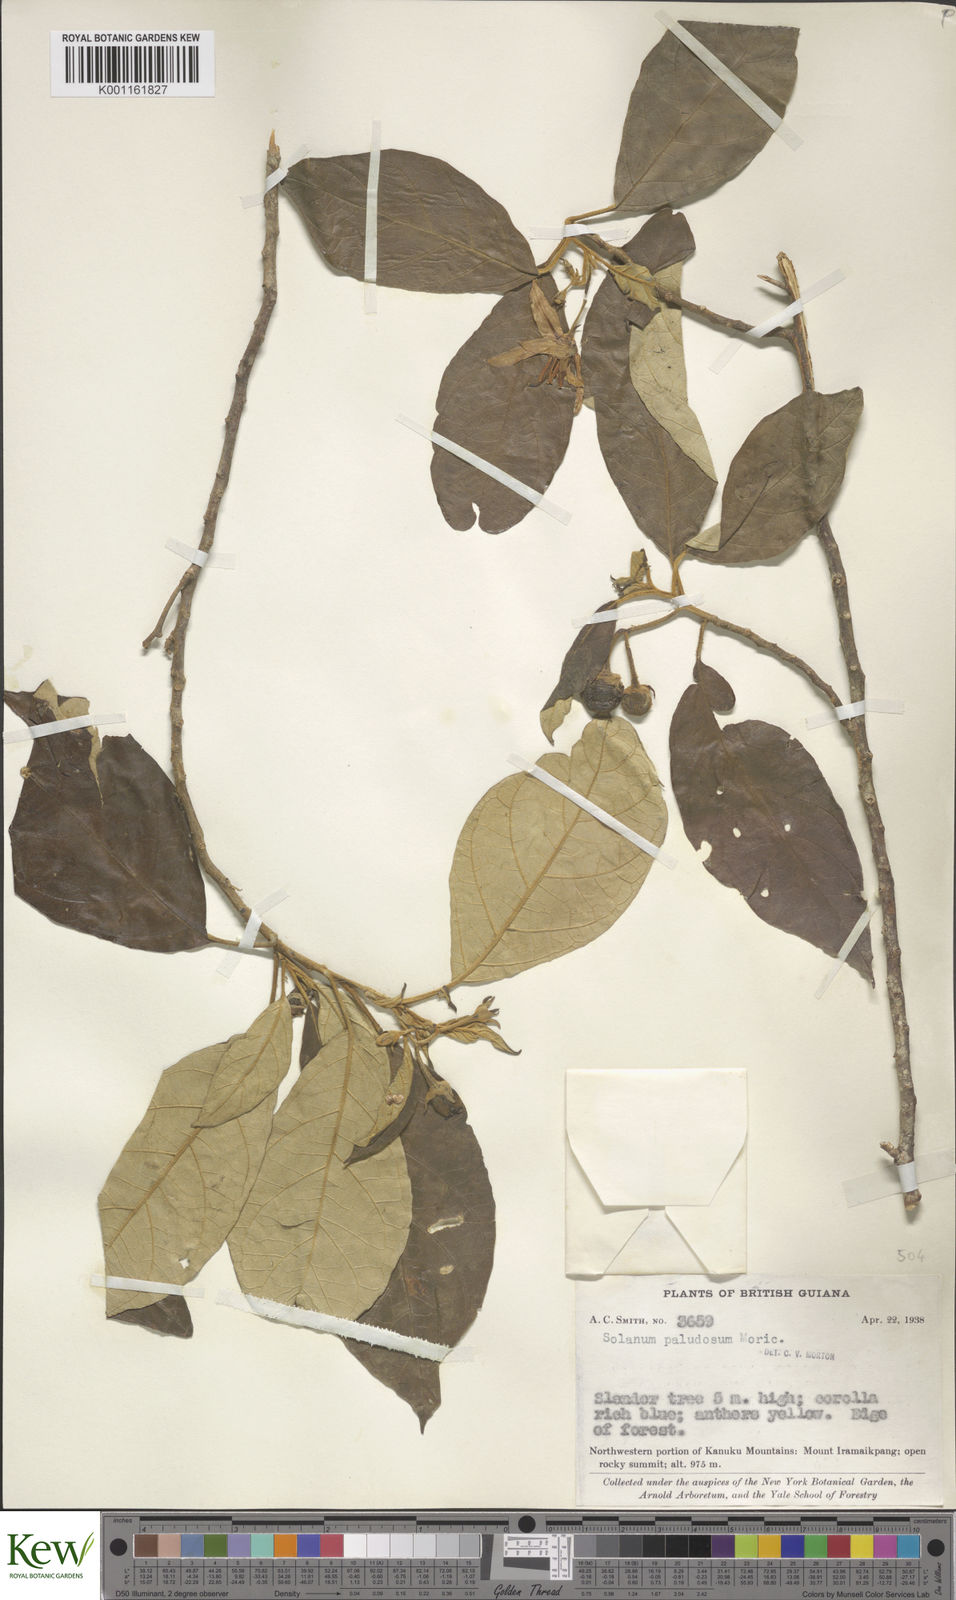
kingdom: Plantae
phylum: Tracheophyta
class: Magnoliopsida
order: Solanales
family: Solanaceae
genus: Solanum
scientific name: Solanum paludosum
